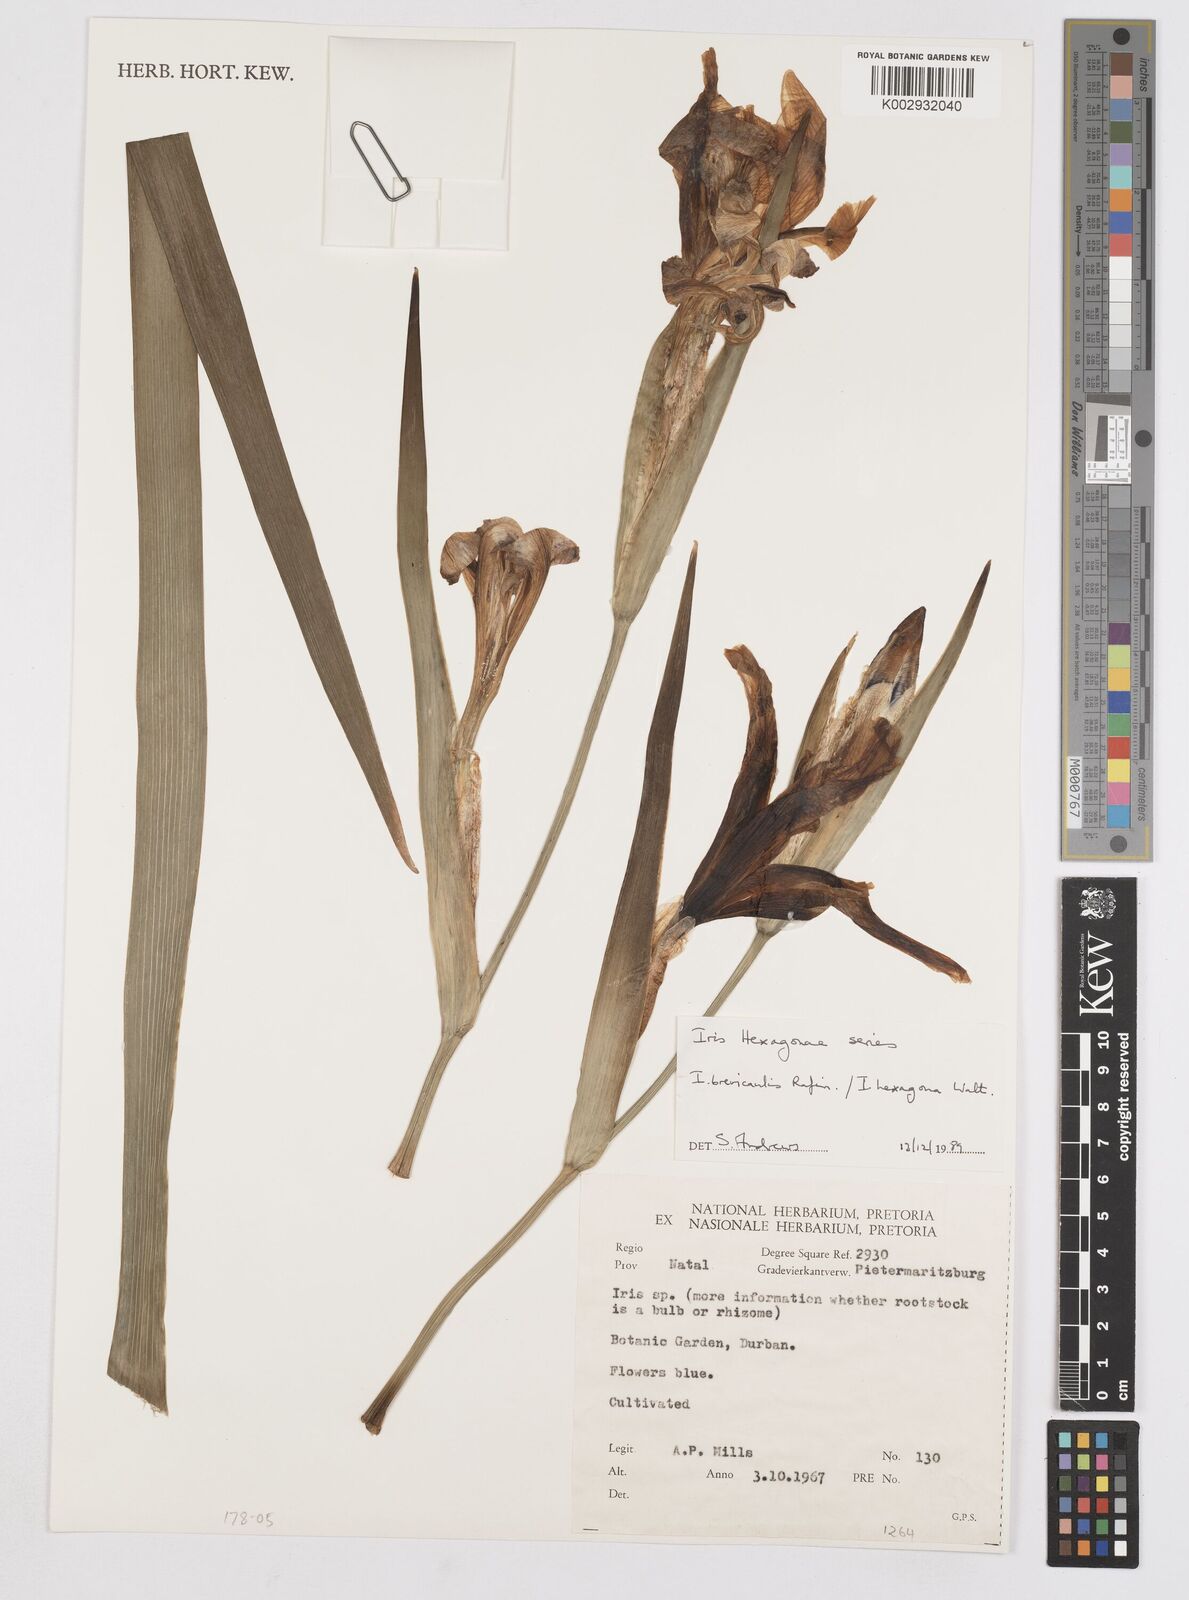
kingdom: Plantae
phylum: Tracheophyta
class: Liliopsida
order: Asparagales
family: Iridaceae
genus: Iris
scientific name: Iris hexagona
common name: Carolina iris
